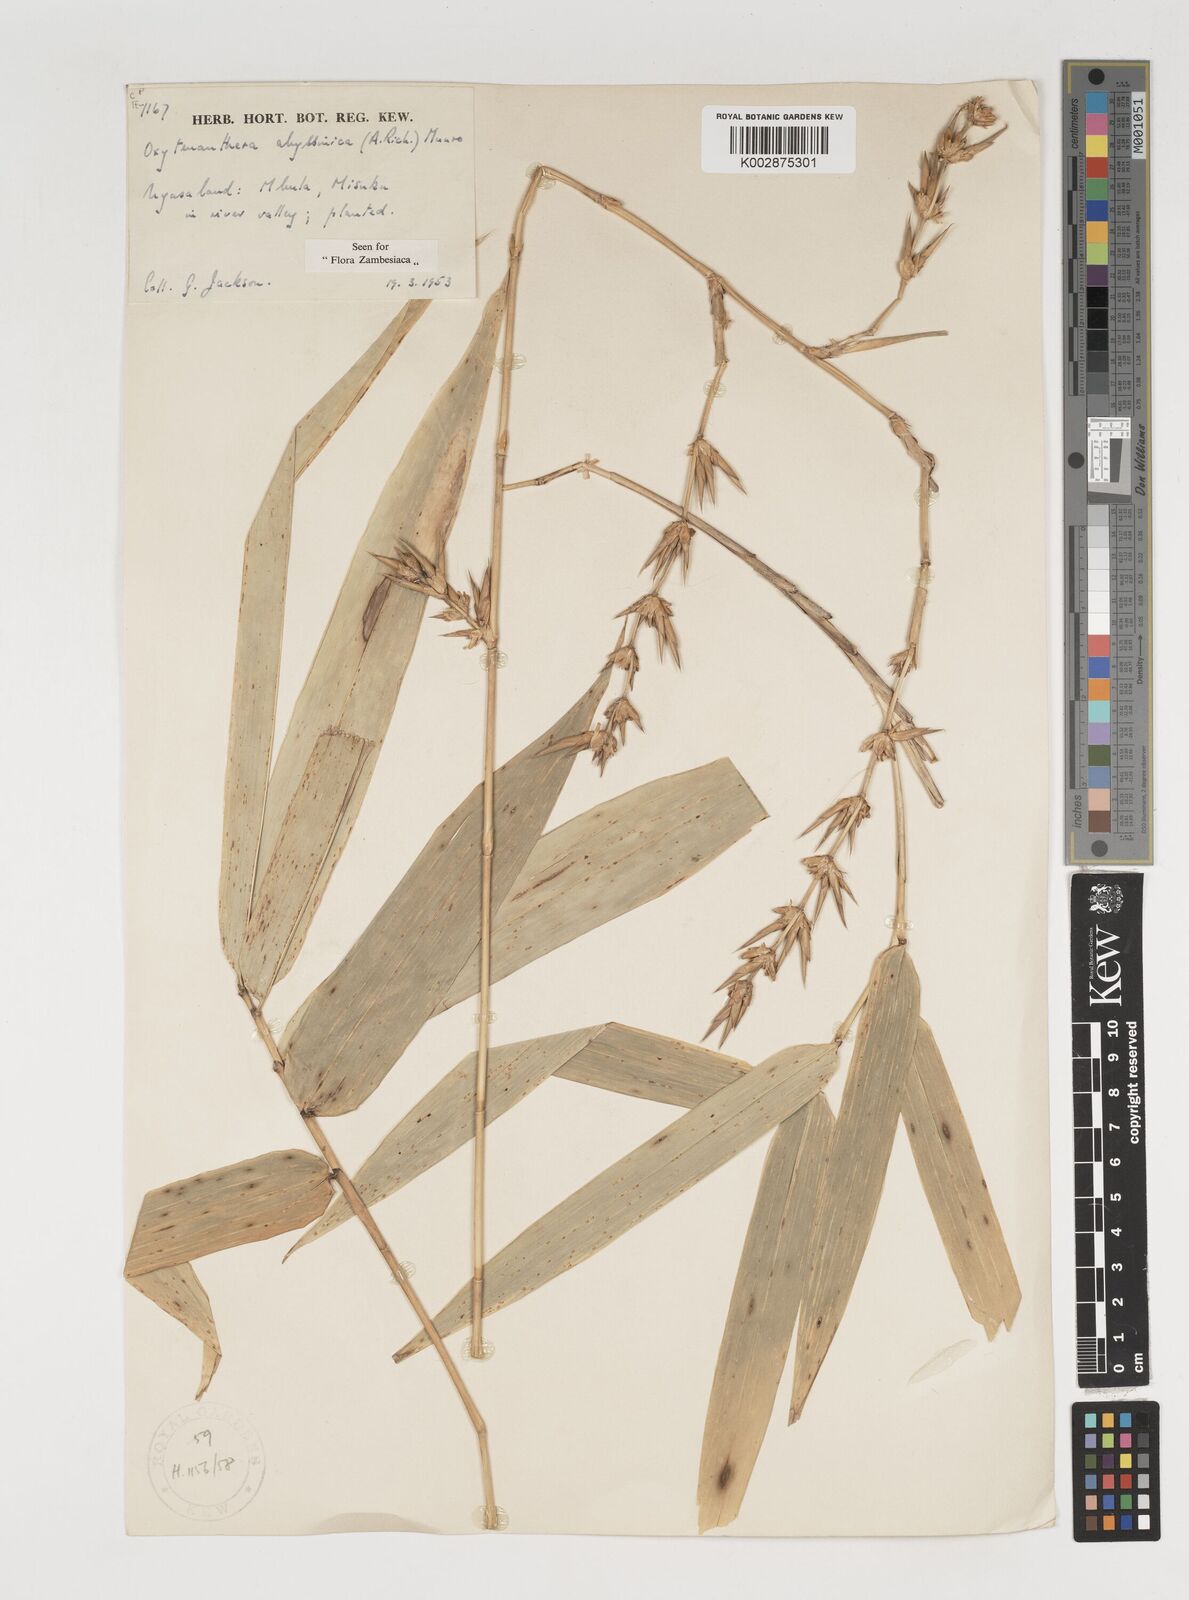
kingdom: Plantae
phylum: Tracheophyta
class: Liliopsida
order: Poales
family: Poaceae
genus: Oxytenanthera
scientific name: Oxytenanthera abyssinica
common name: Wine bamboo
